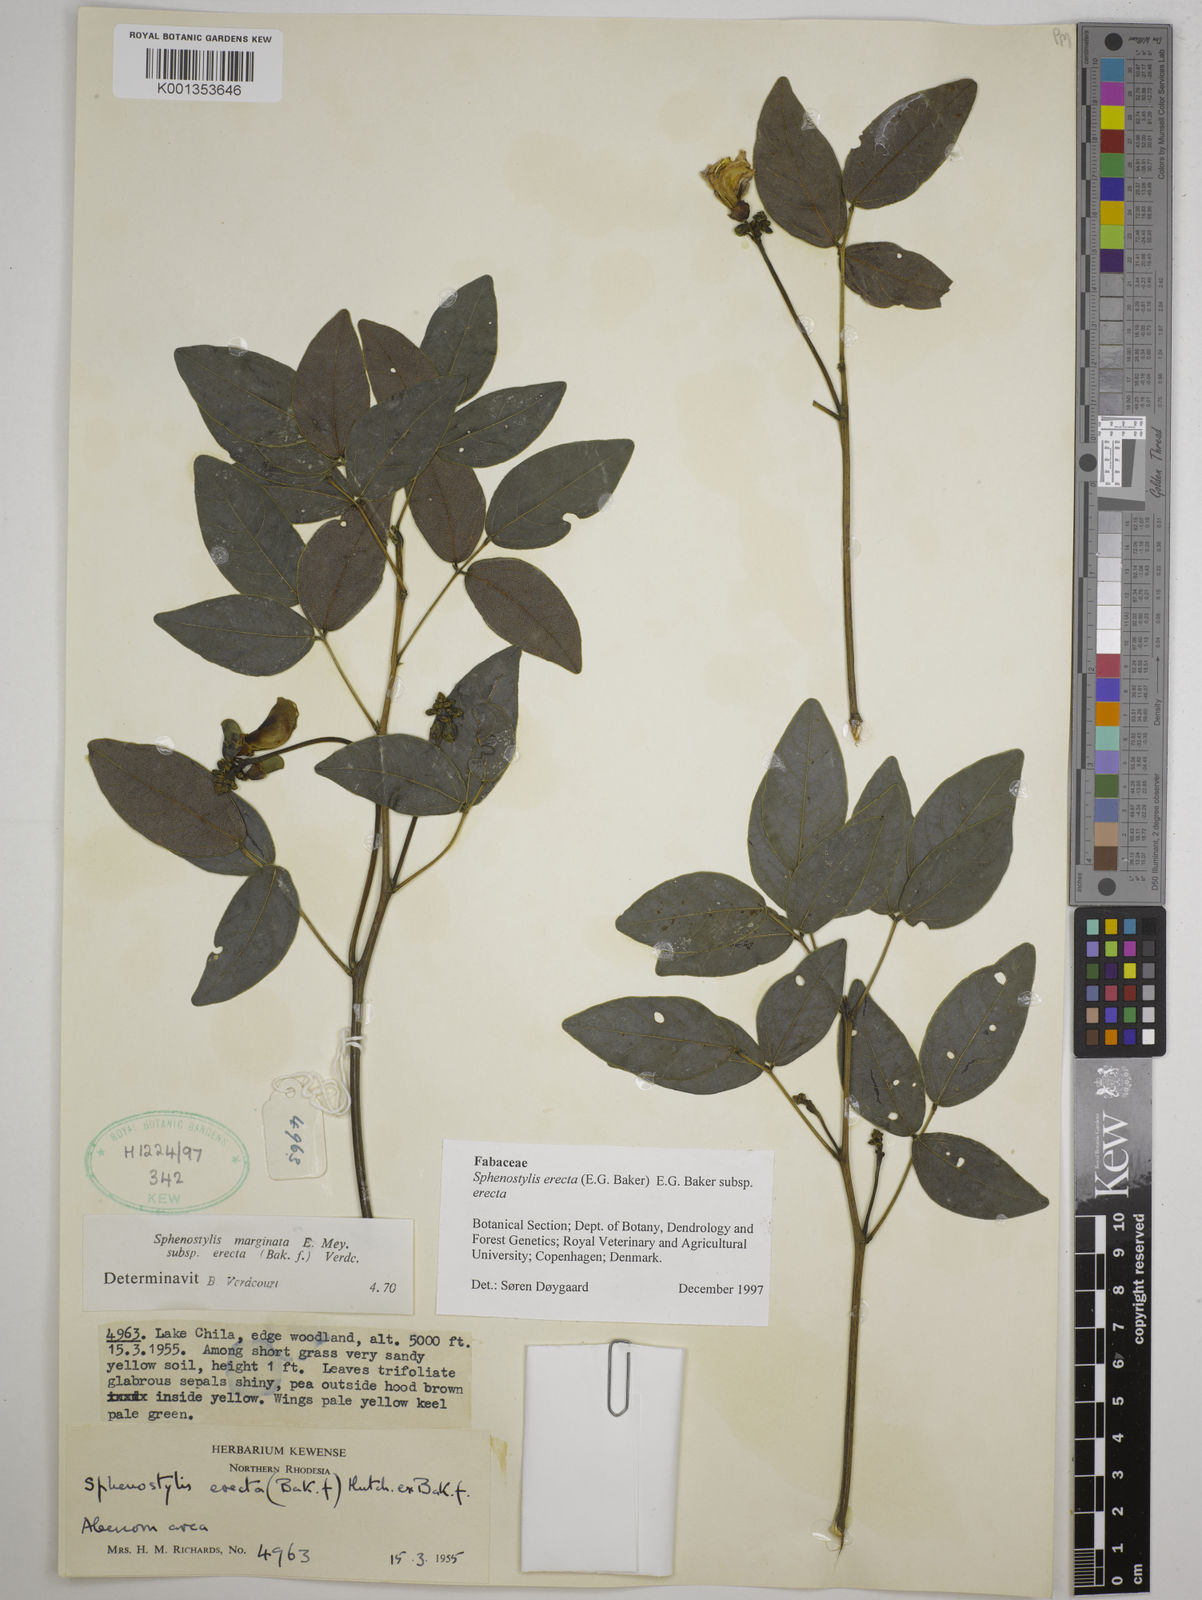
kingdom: Plantae
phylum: Tracheophyta
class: Magnoliopsida
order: Fabales
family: Fabaceae
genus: Sphenostylis
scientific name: Sphenostylis erecta
